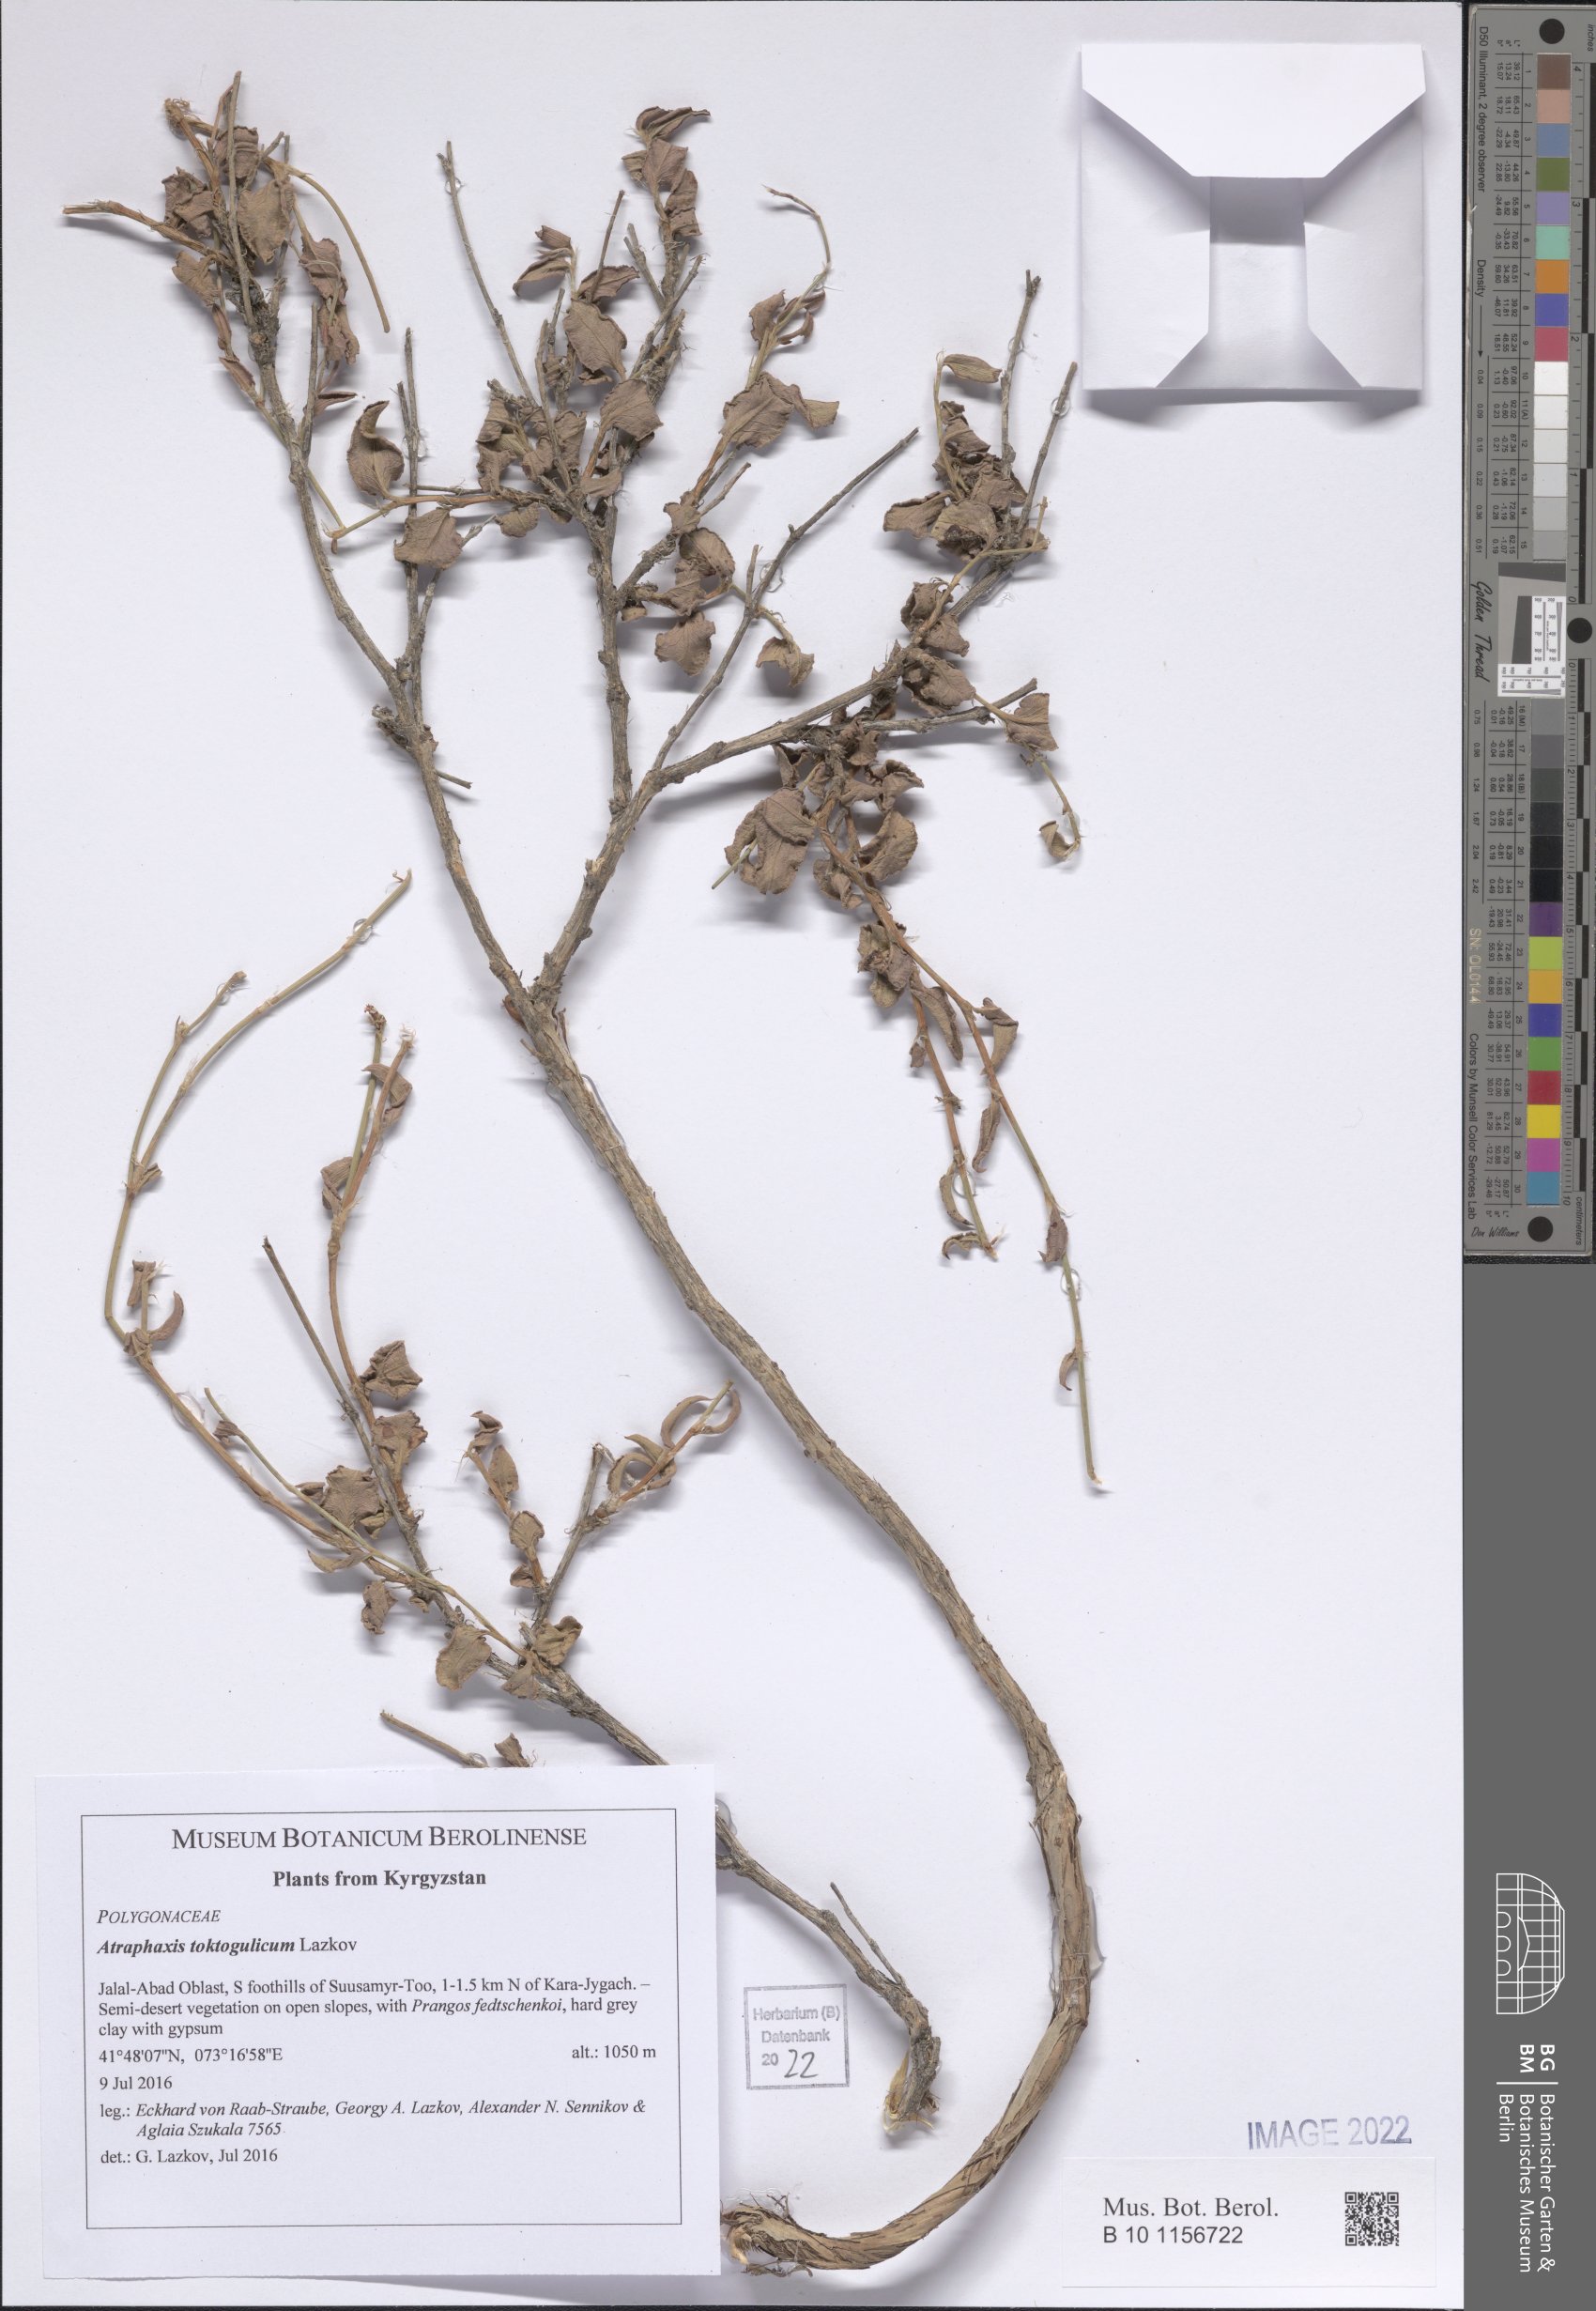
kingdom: Plantae
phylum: Tracheophyta
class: Magnoliopsida
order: Caryophyllales
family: Polygonaceae
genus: Atraphaxis
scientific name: Atraphaxis toktogulica
